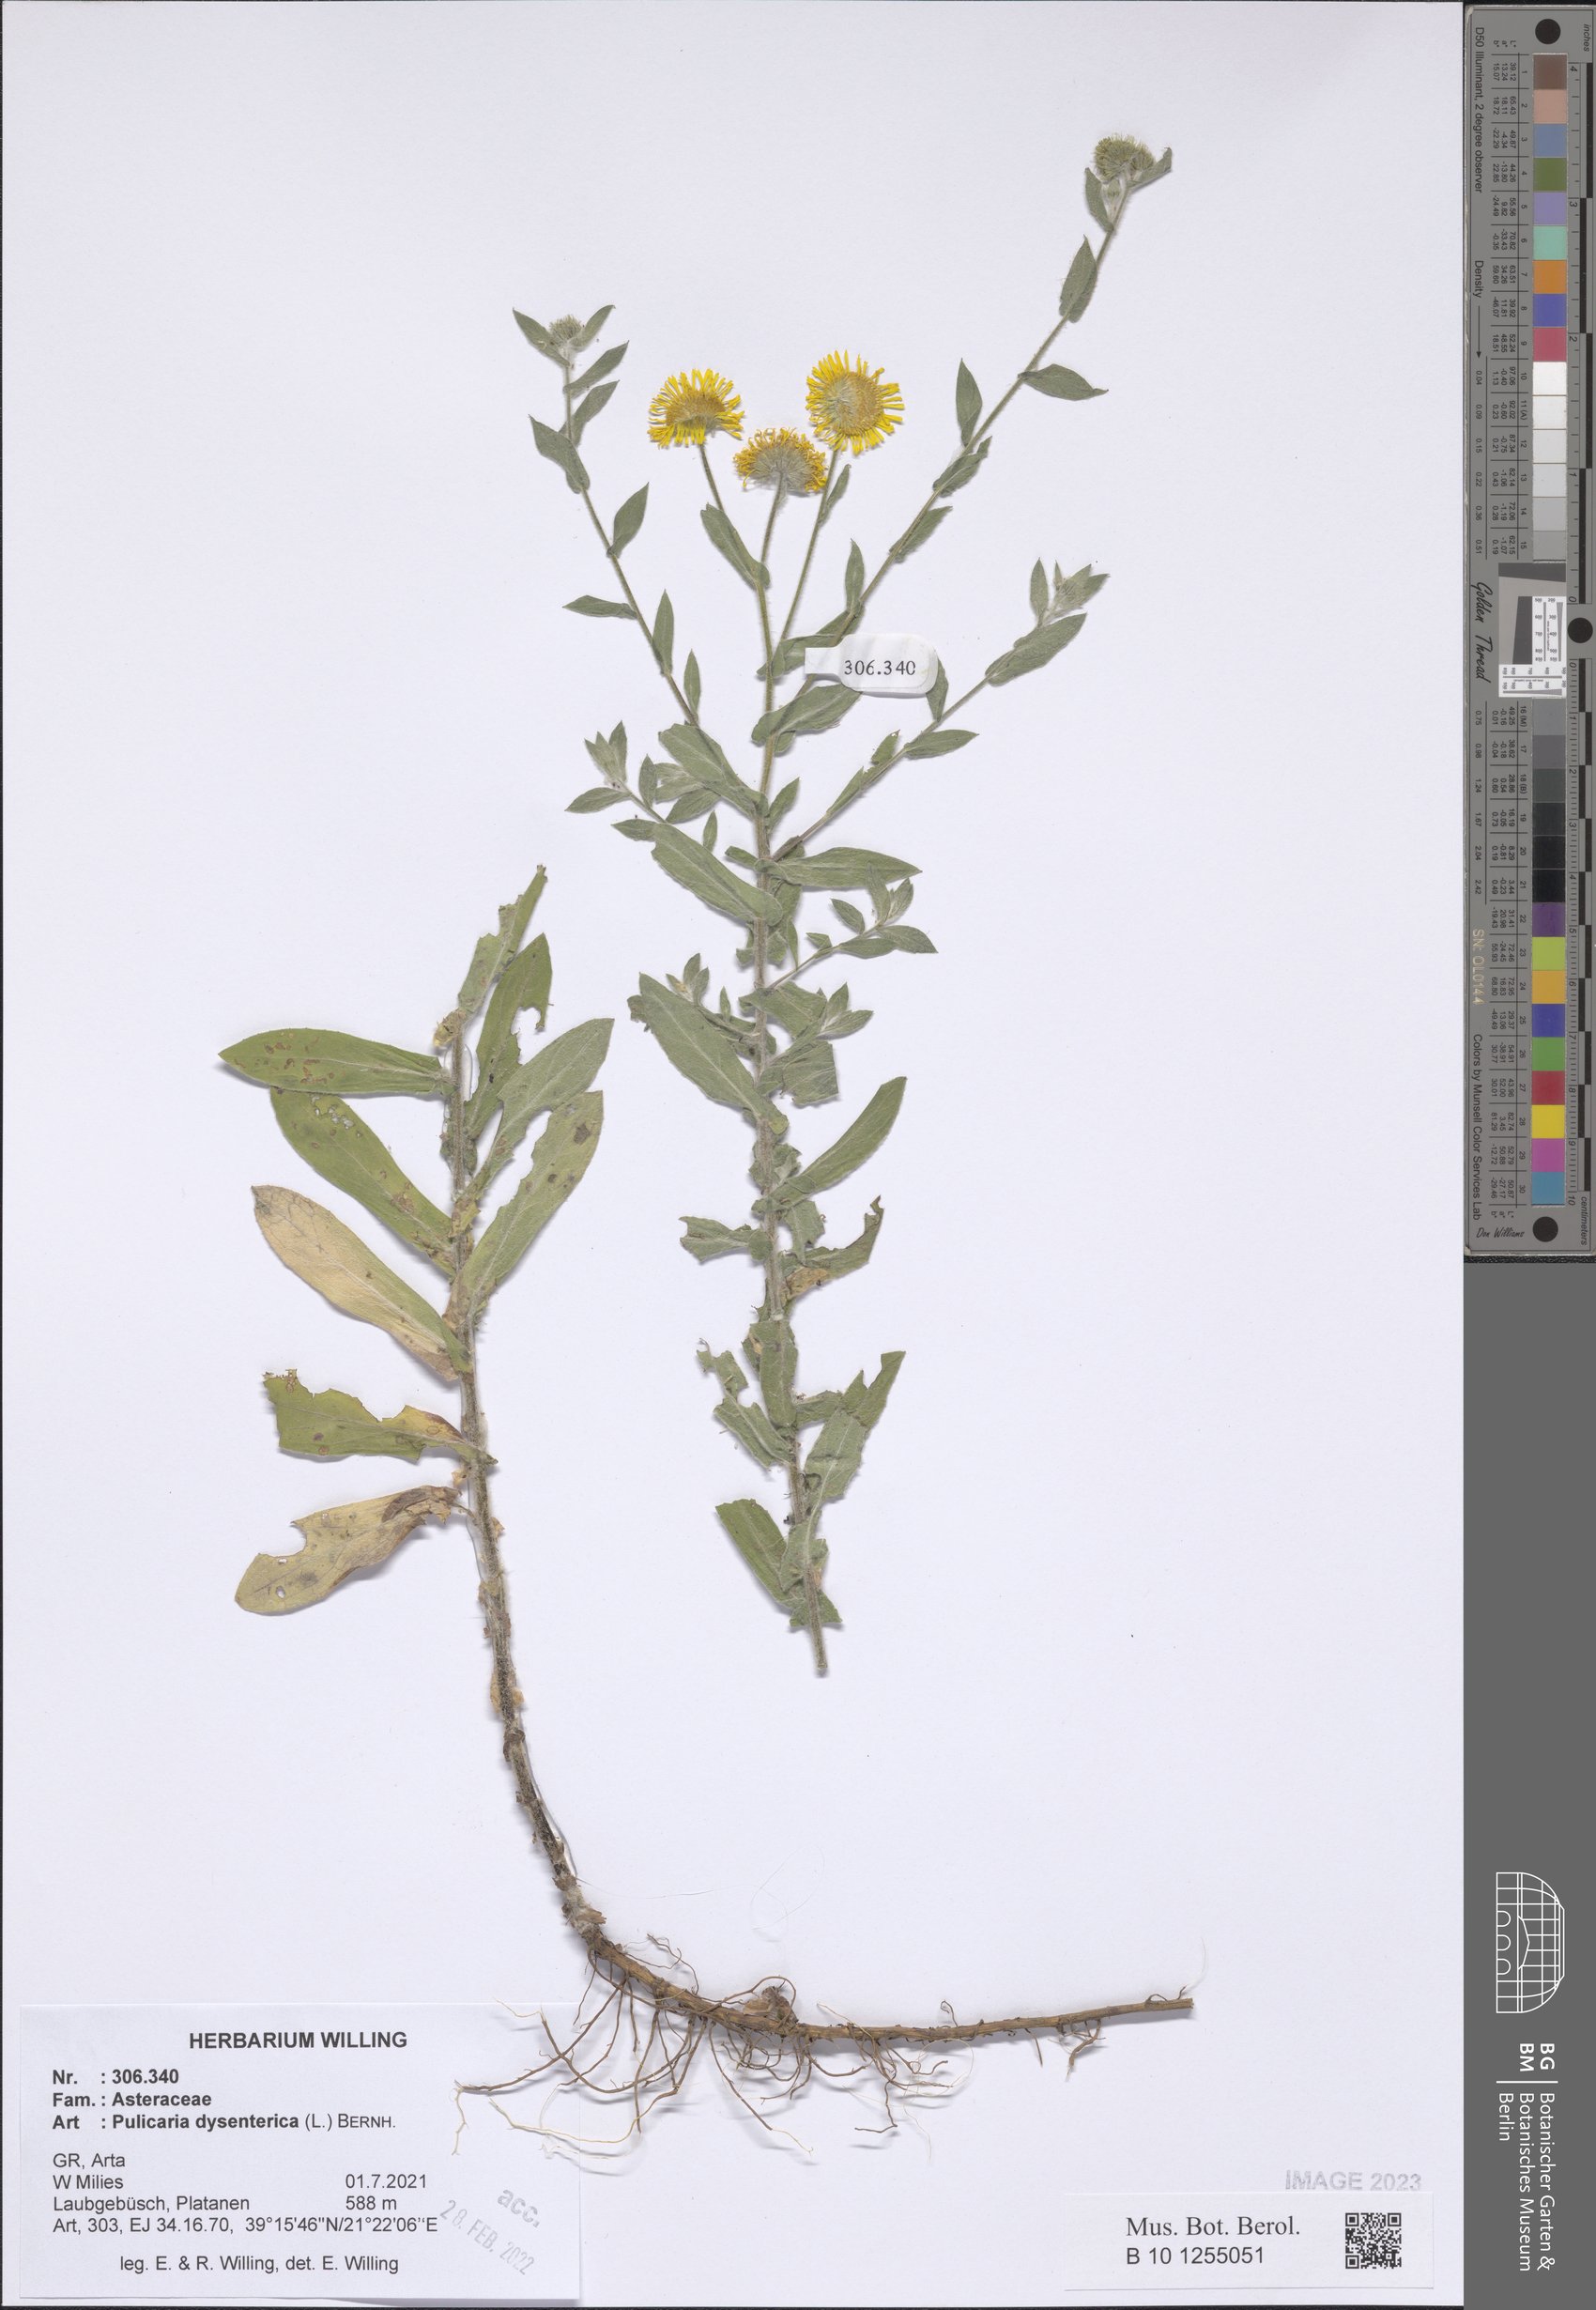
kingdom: Plantae
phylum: Tracheophyta
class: Magnoliopsida
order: Asterales
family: Asteraceae
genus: Pulicaria
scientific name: Pulicaria dysenterica
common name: Common fleabane
